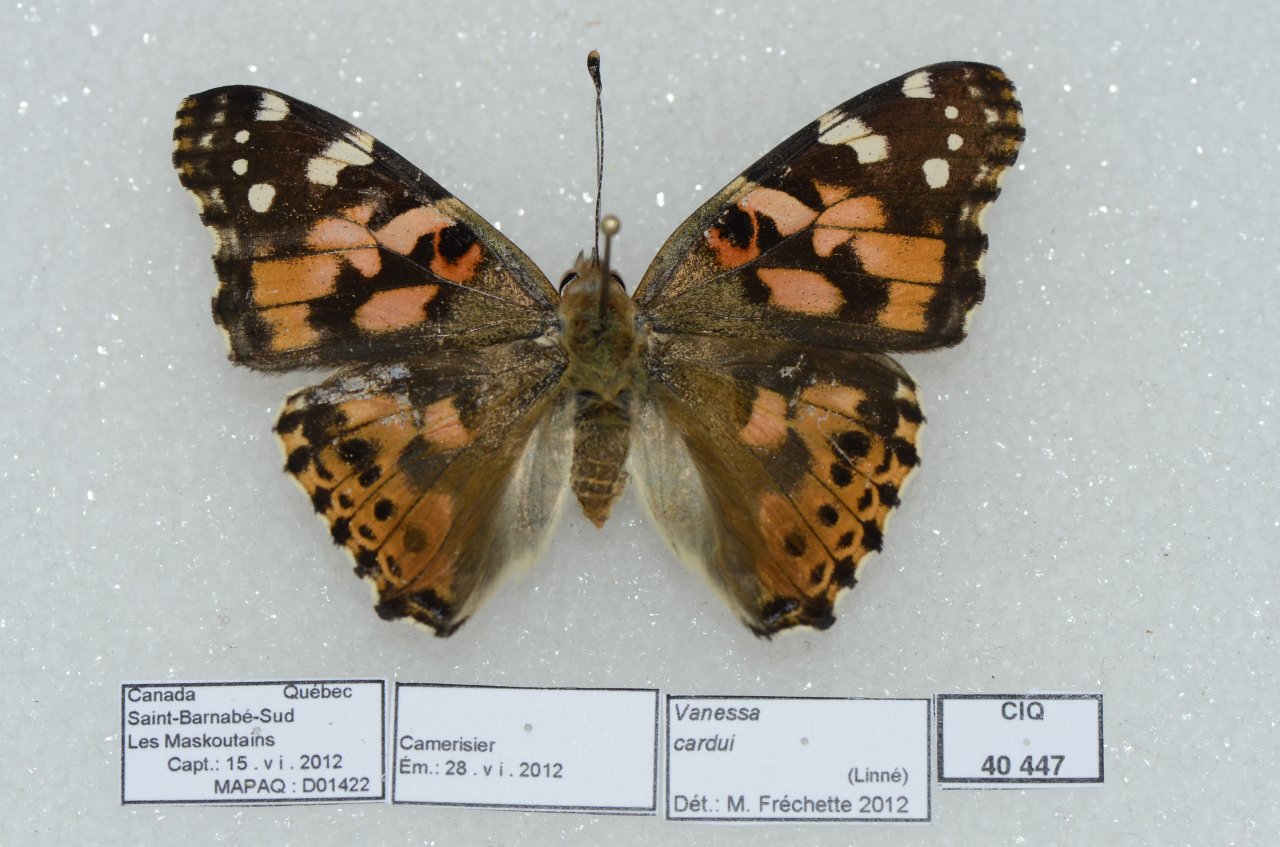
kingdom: Animalia
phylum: Arthropoda
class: Insecta
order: Lepidoptera
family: Nymphalidae
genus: Vanessa
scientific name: Vanessa cardui
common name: Painted Lady
